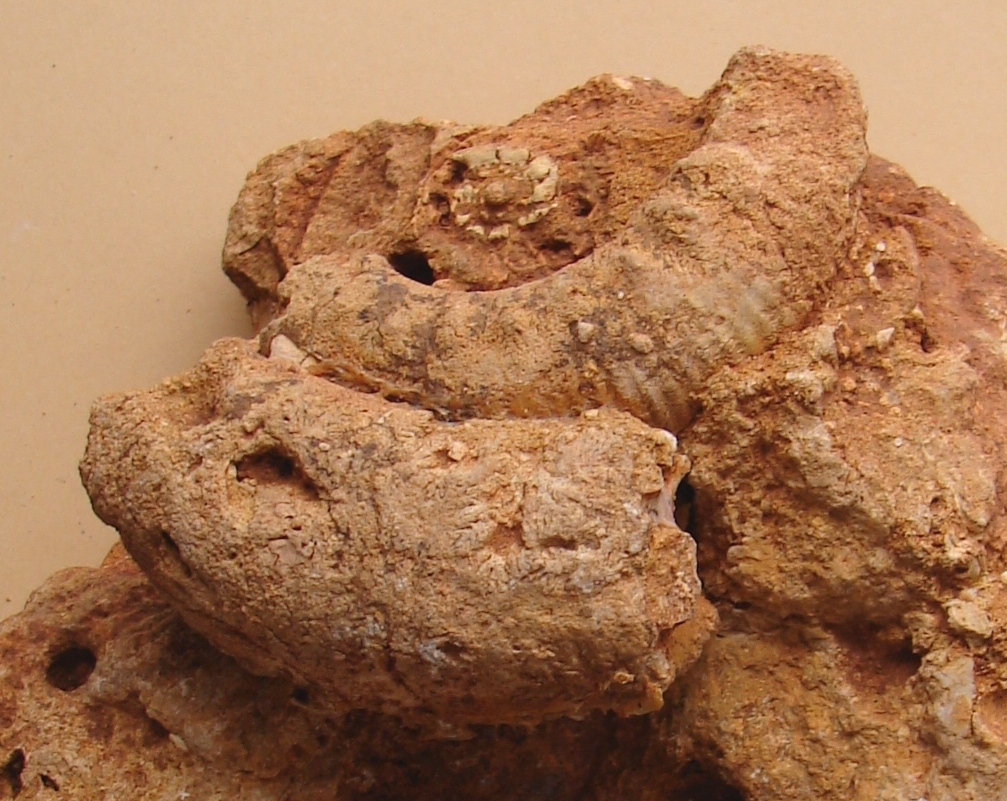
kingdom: Animalia
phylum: Mollusca
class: Cephalopoda
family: Stephanoceratidae
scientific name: Stephanoceratidae
